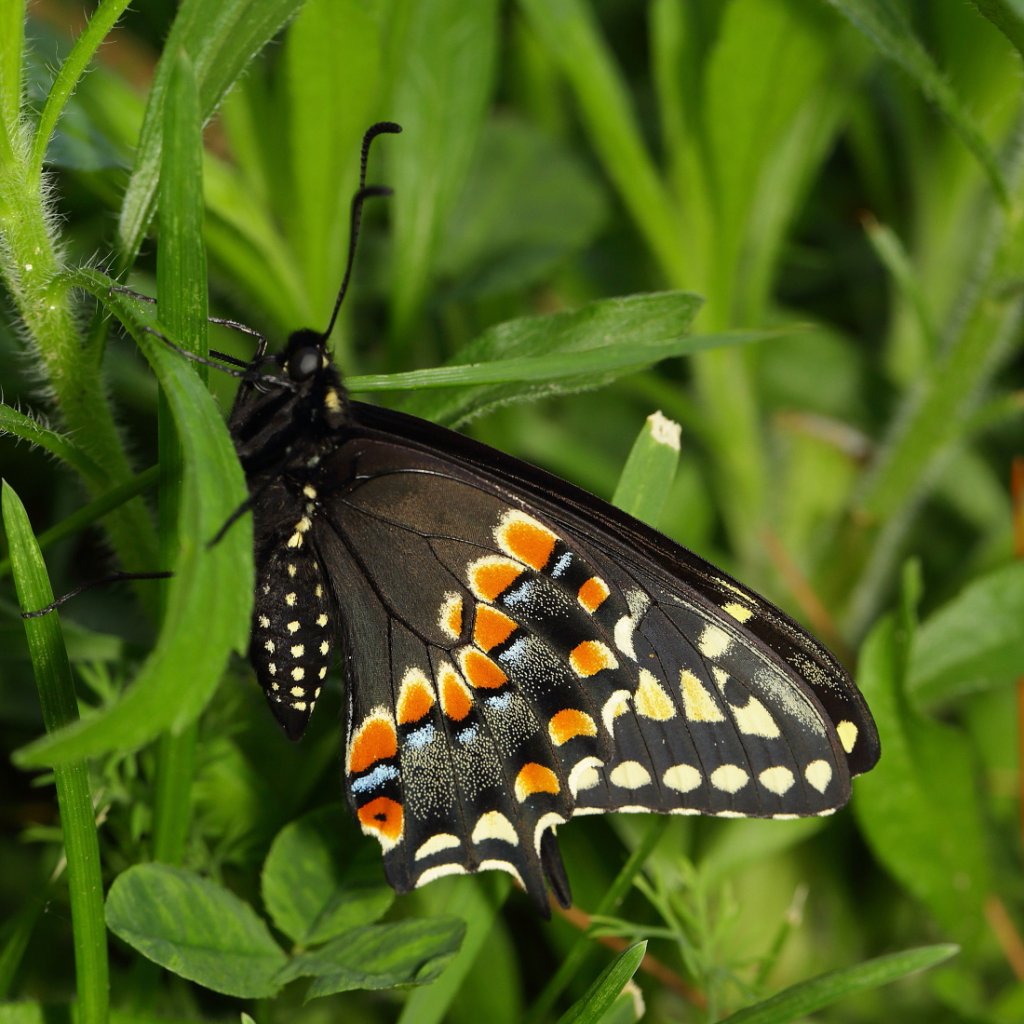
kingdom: Animalia
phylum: Arthropoda
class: Insecta
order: Lepidoptera
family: Papilionidae
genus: Papilio
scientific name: Papilio polyxenes
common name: Black Swallowtail
